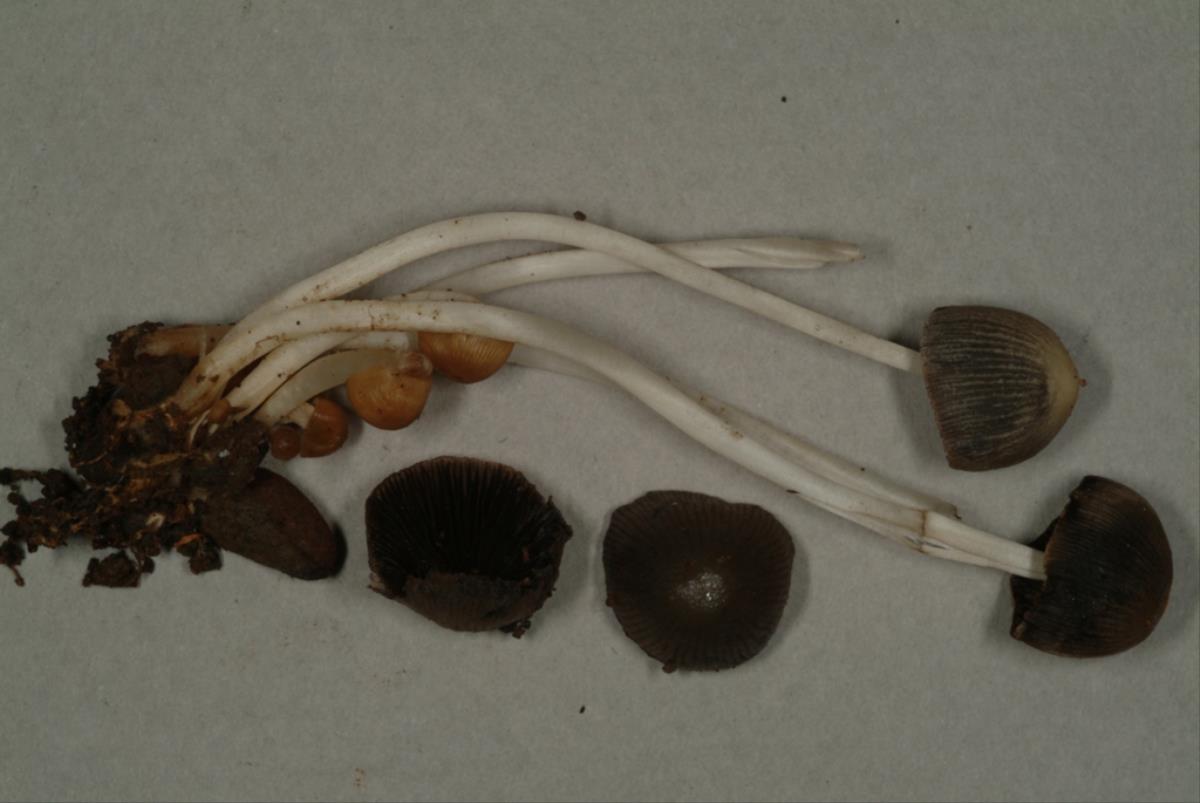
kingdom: Fungi
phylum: Basidiomycota
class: Agaricomycetes
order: Agaricales
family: Psathyrellaceae
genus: Parasola
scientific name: Parasola conopilea
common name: Conical brittlestem
